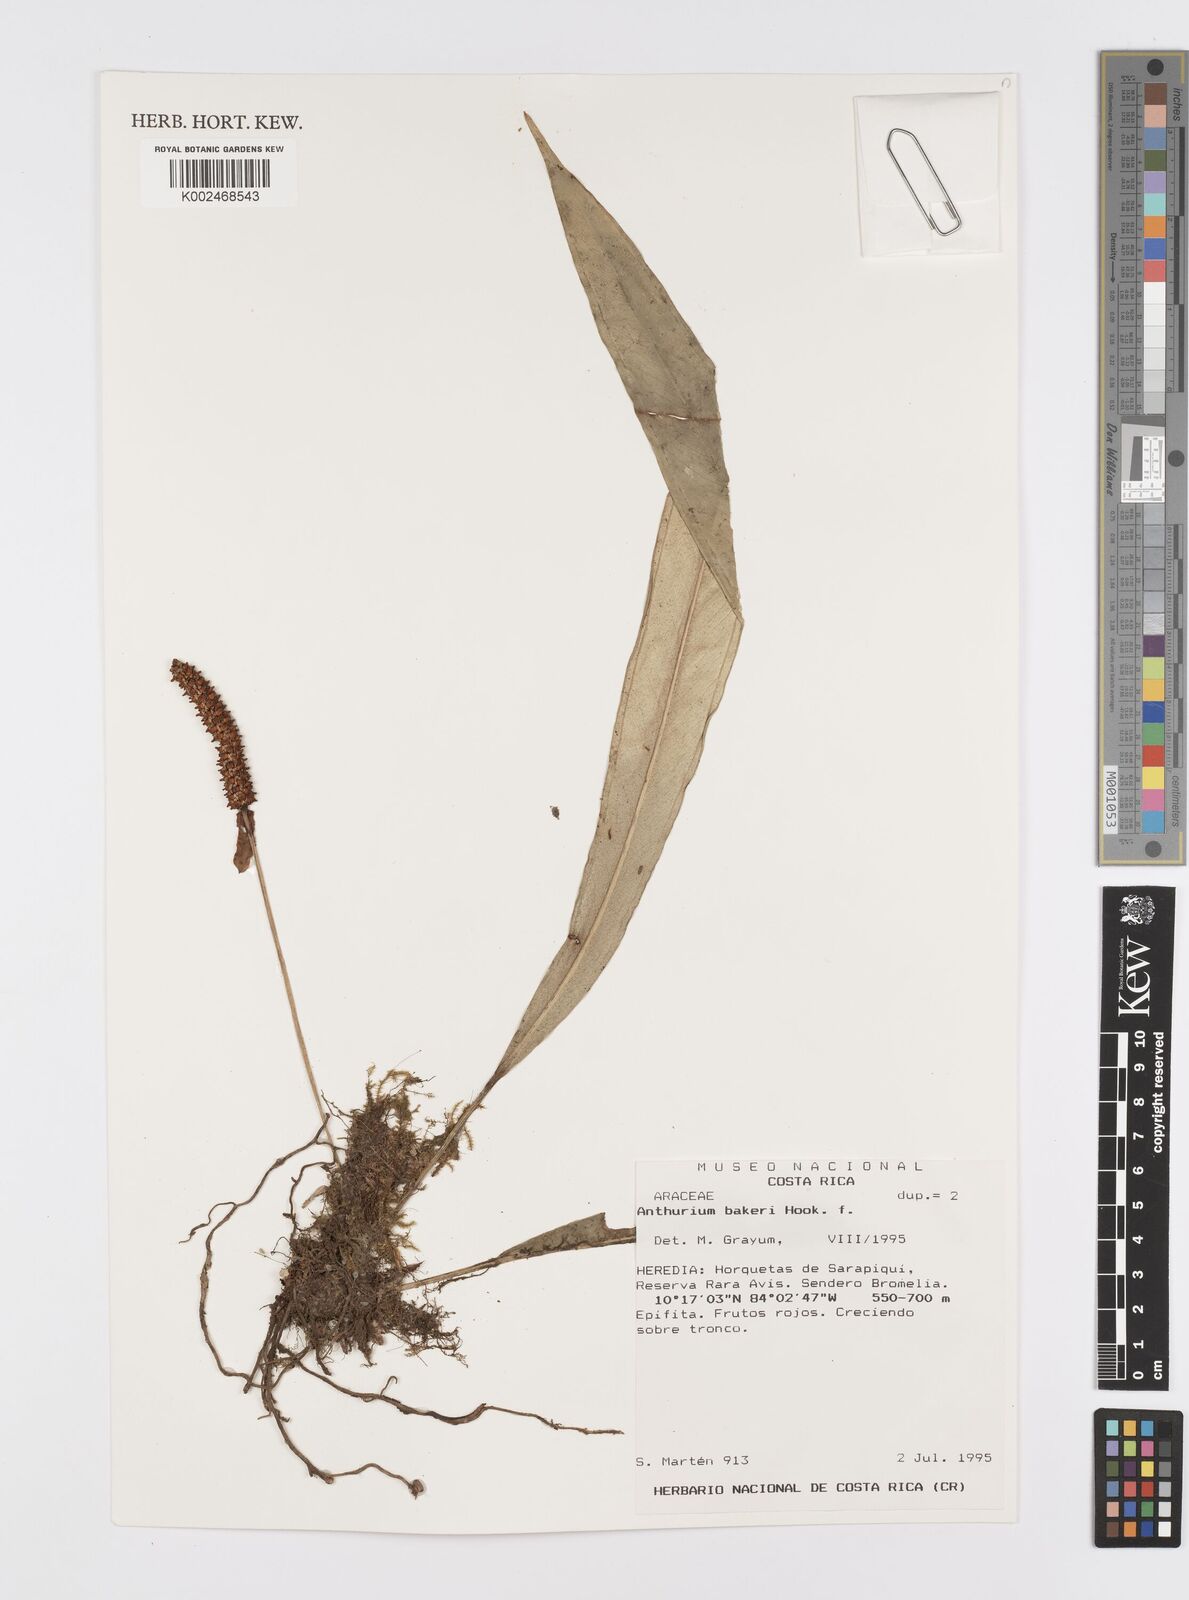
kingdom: Plantae
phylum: Tracheophyta
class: Liliopsida
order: Alismatales
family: Araceae
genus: Anthurium
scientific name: Anthurium bakeri
